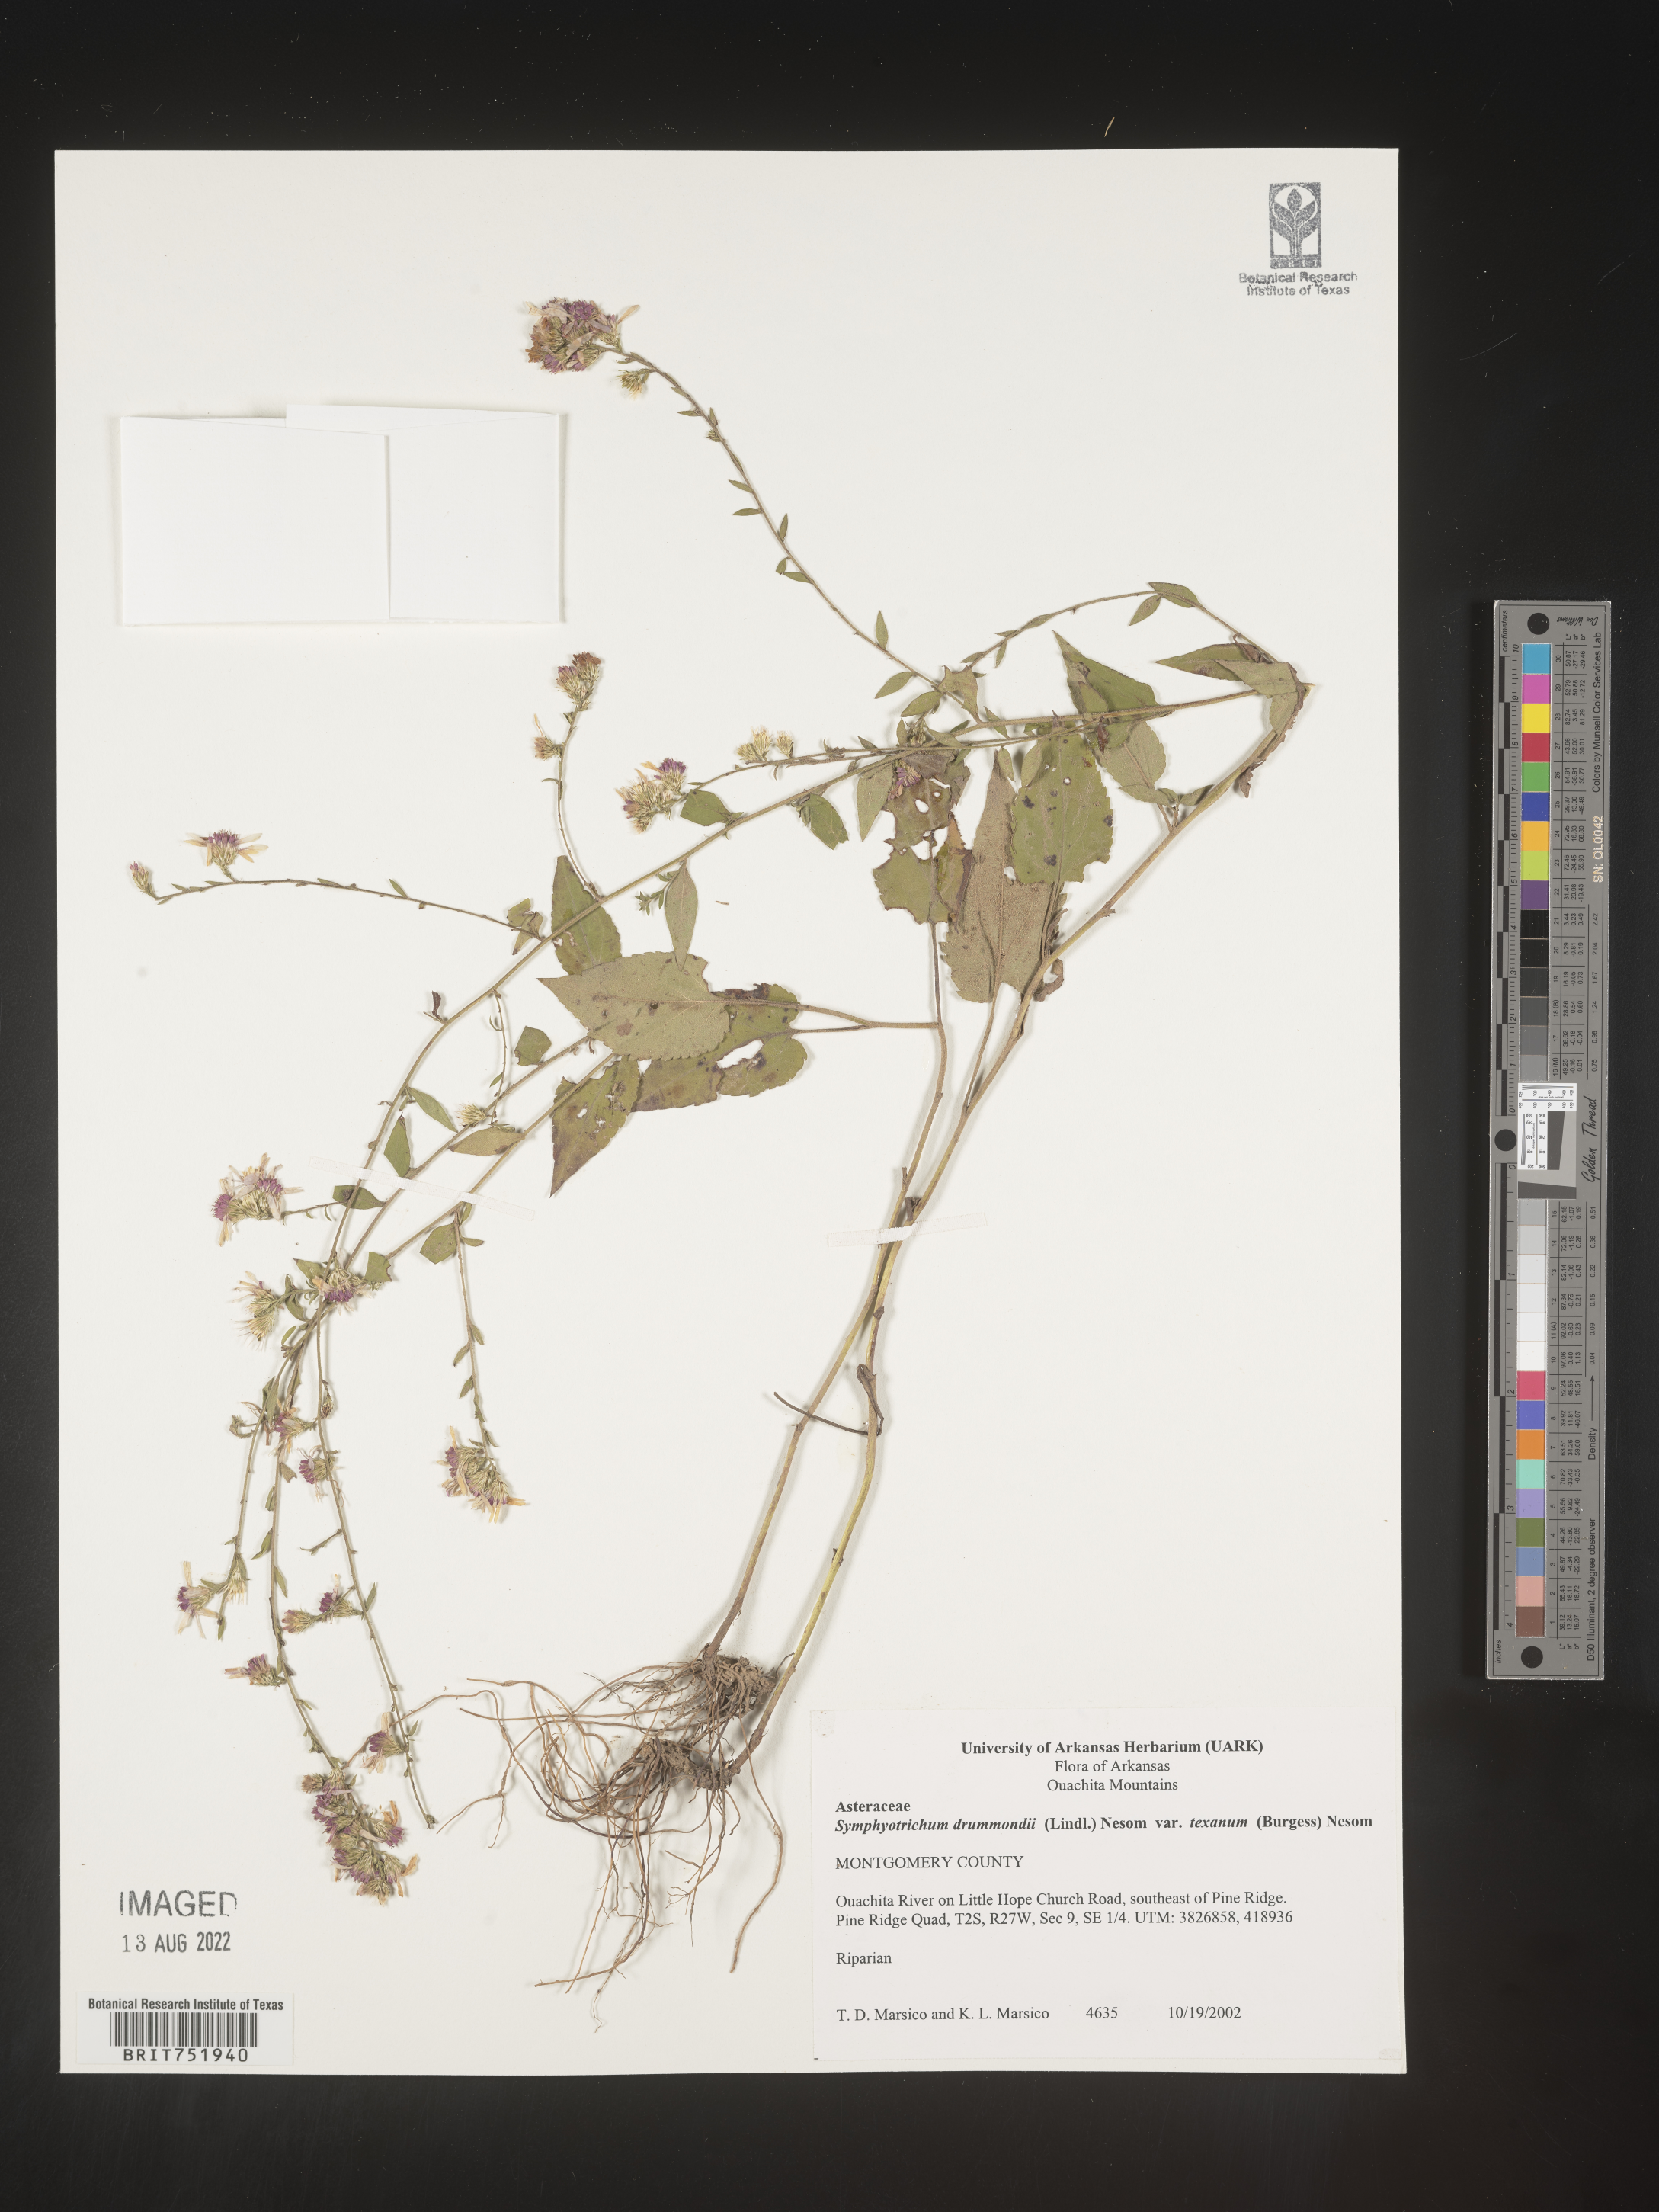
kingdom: Plantae
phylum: Tracheophyta
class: Magnoliopsida
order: Asterales
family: Asteraceae
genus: Symphyotrichum
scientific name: Symphyotrichum drummondii
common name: Drummond's aster
